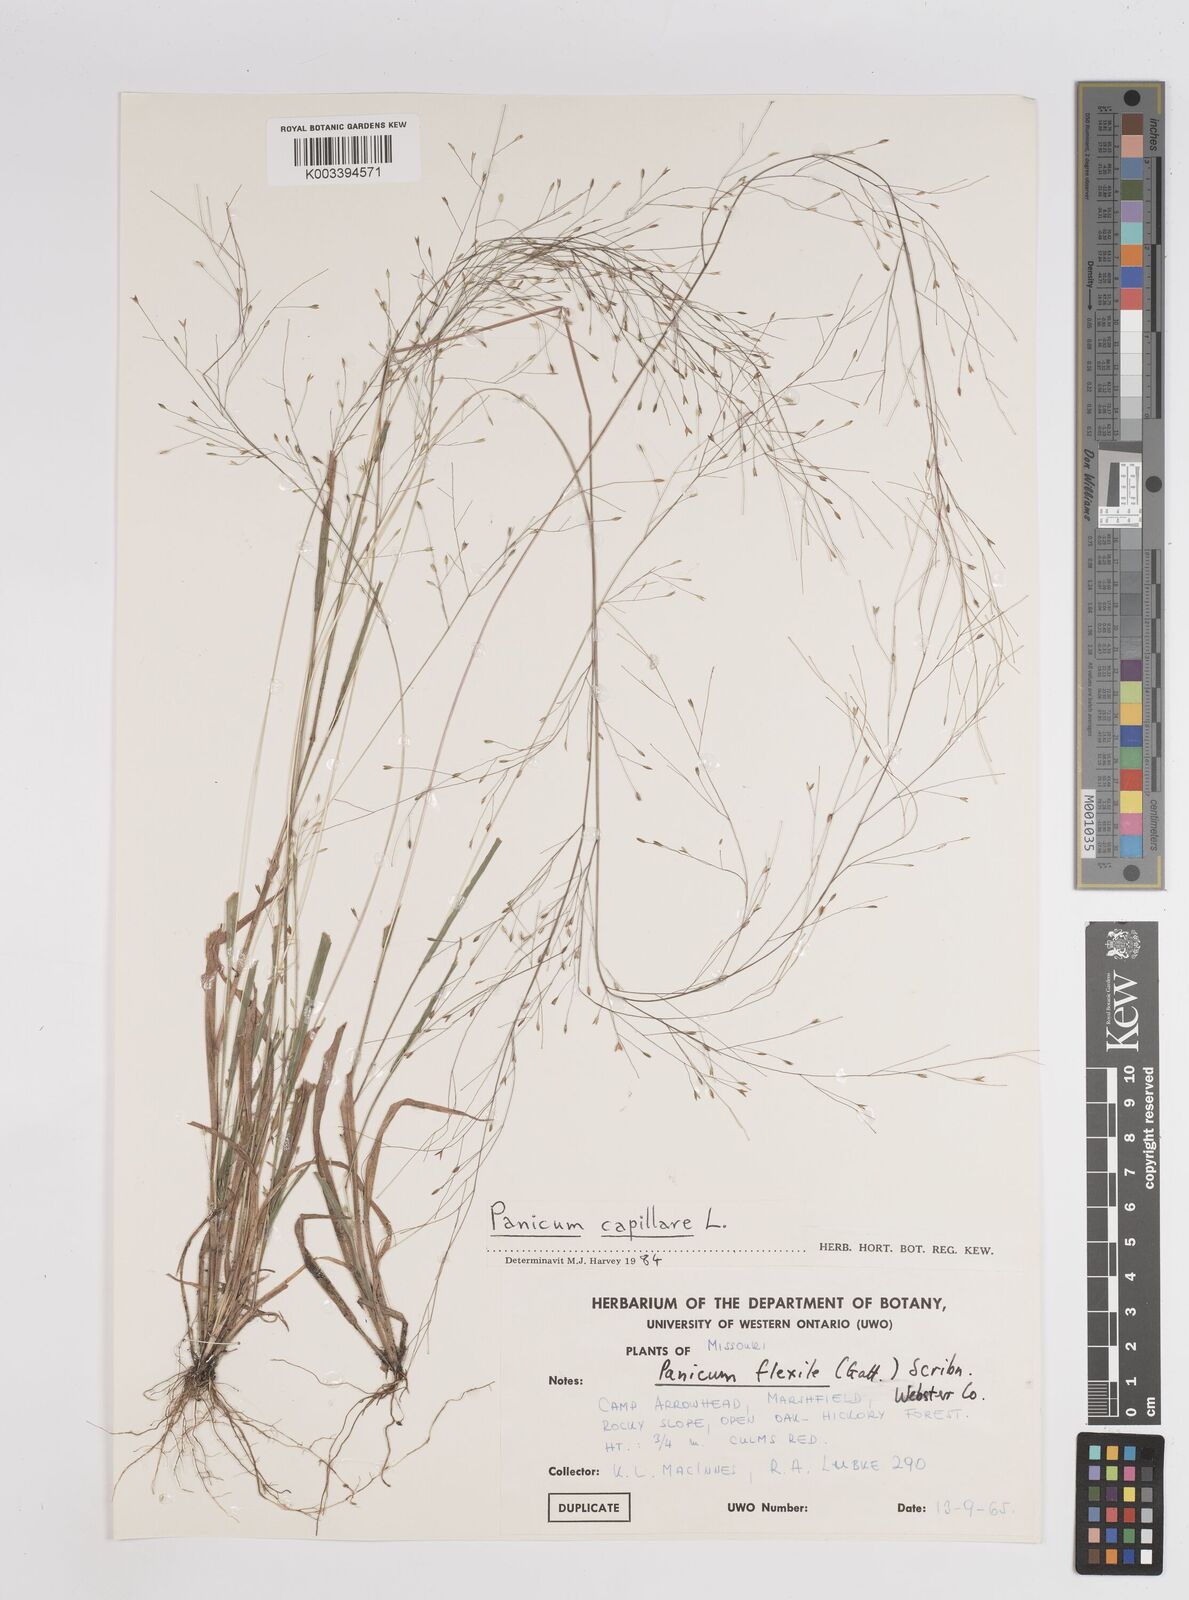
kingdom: Plantae
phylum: Tracheophyta
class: Liliopsida
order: Poales
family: Poaceae
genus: Panicum
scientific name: Panicum flexile
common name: Wiry panicgrass
